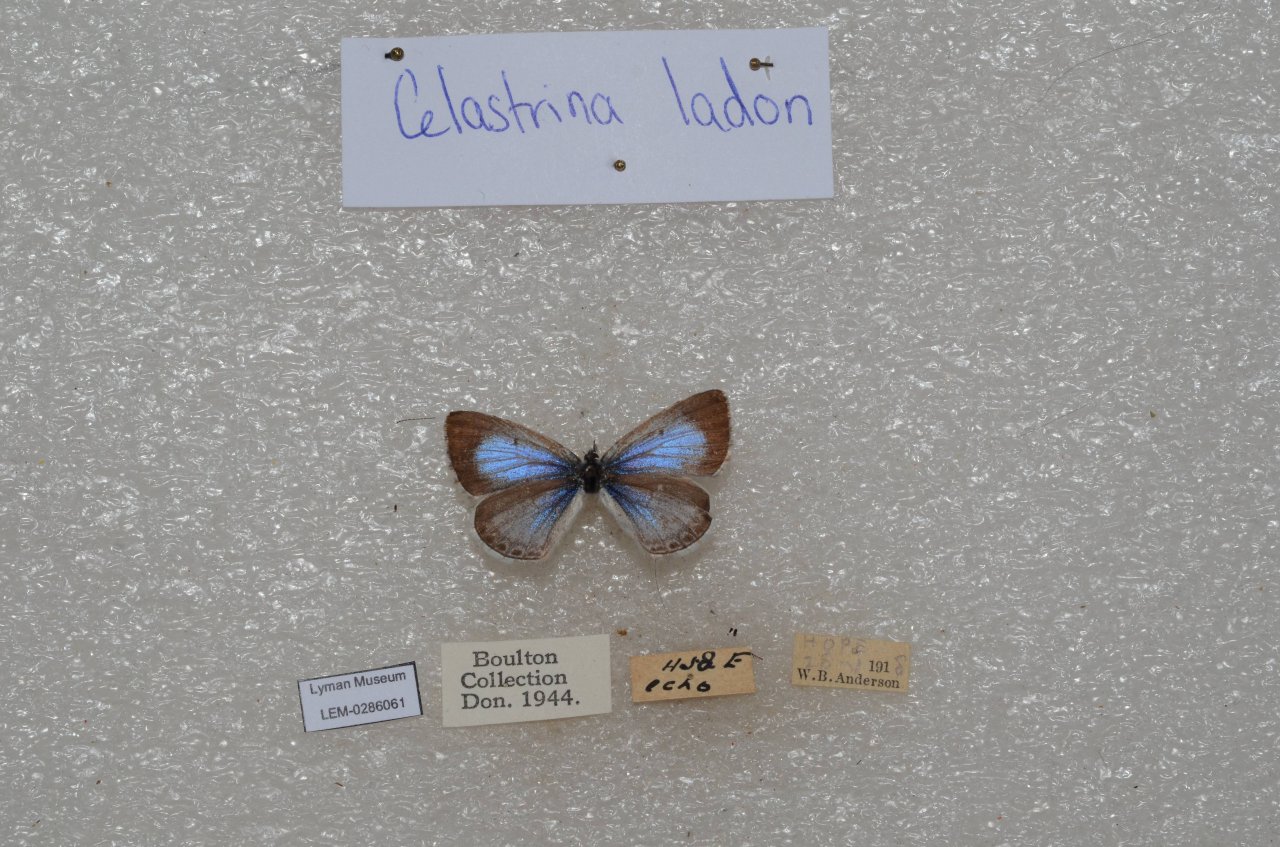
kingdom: Animalia
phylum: Arthropoda
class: Insecta
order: Lepidoptera
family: Lycaenidae
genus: Celastrina
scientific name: Celastrina
